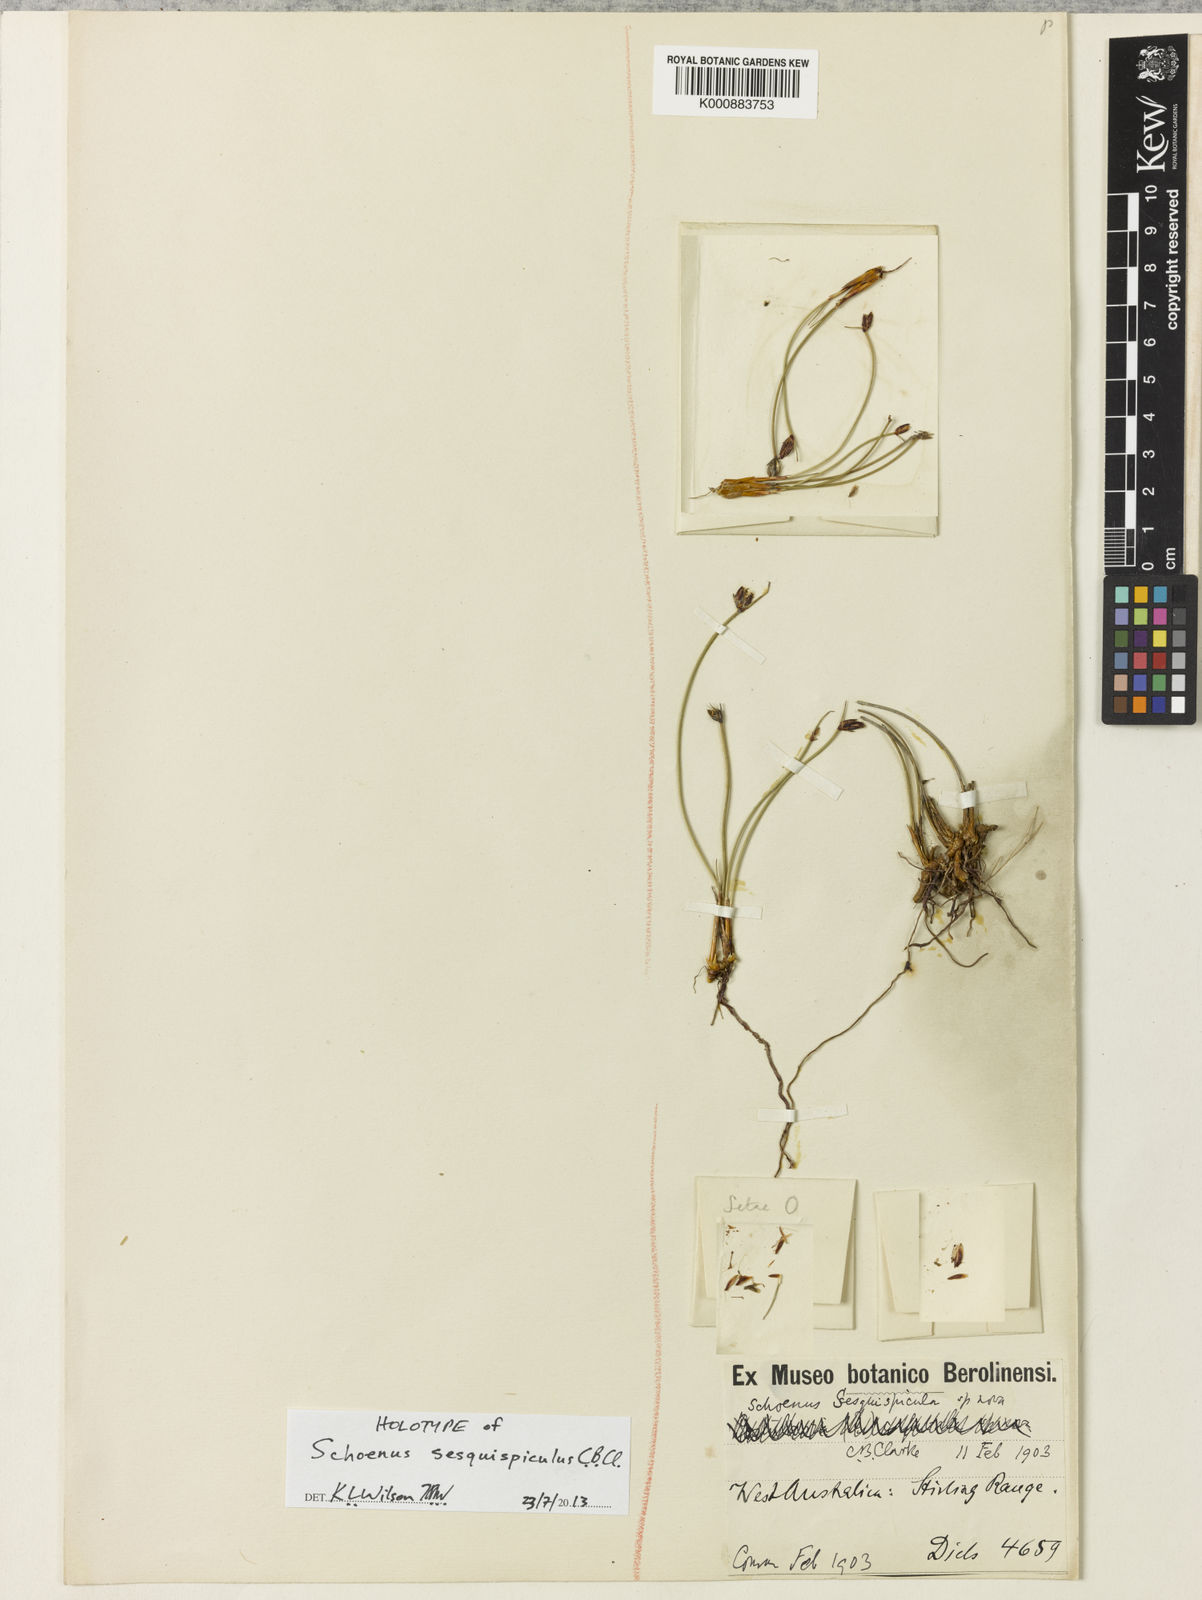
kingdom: Plantae
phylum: Tracheophyta
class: Liliopsida
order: Poales
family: Cyperaceae
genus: Schoenus
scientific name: Schoenus sesquispicula
